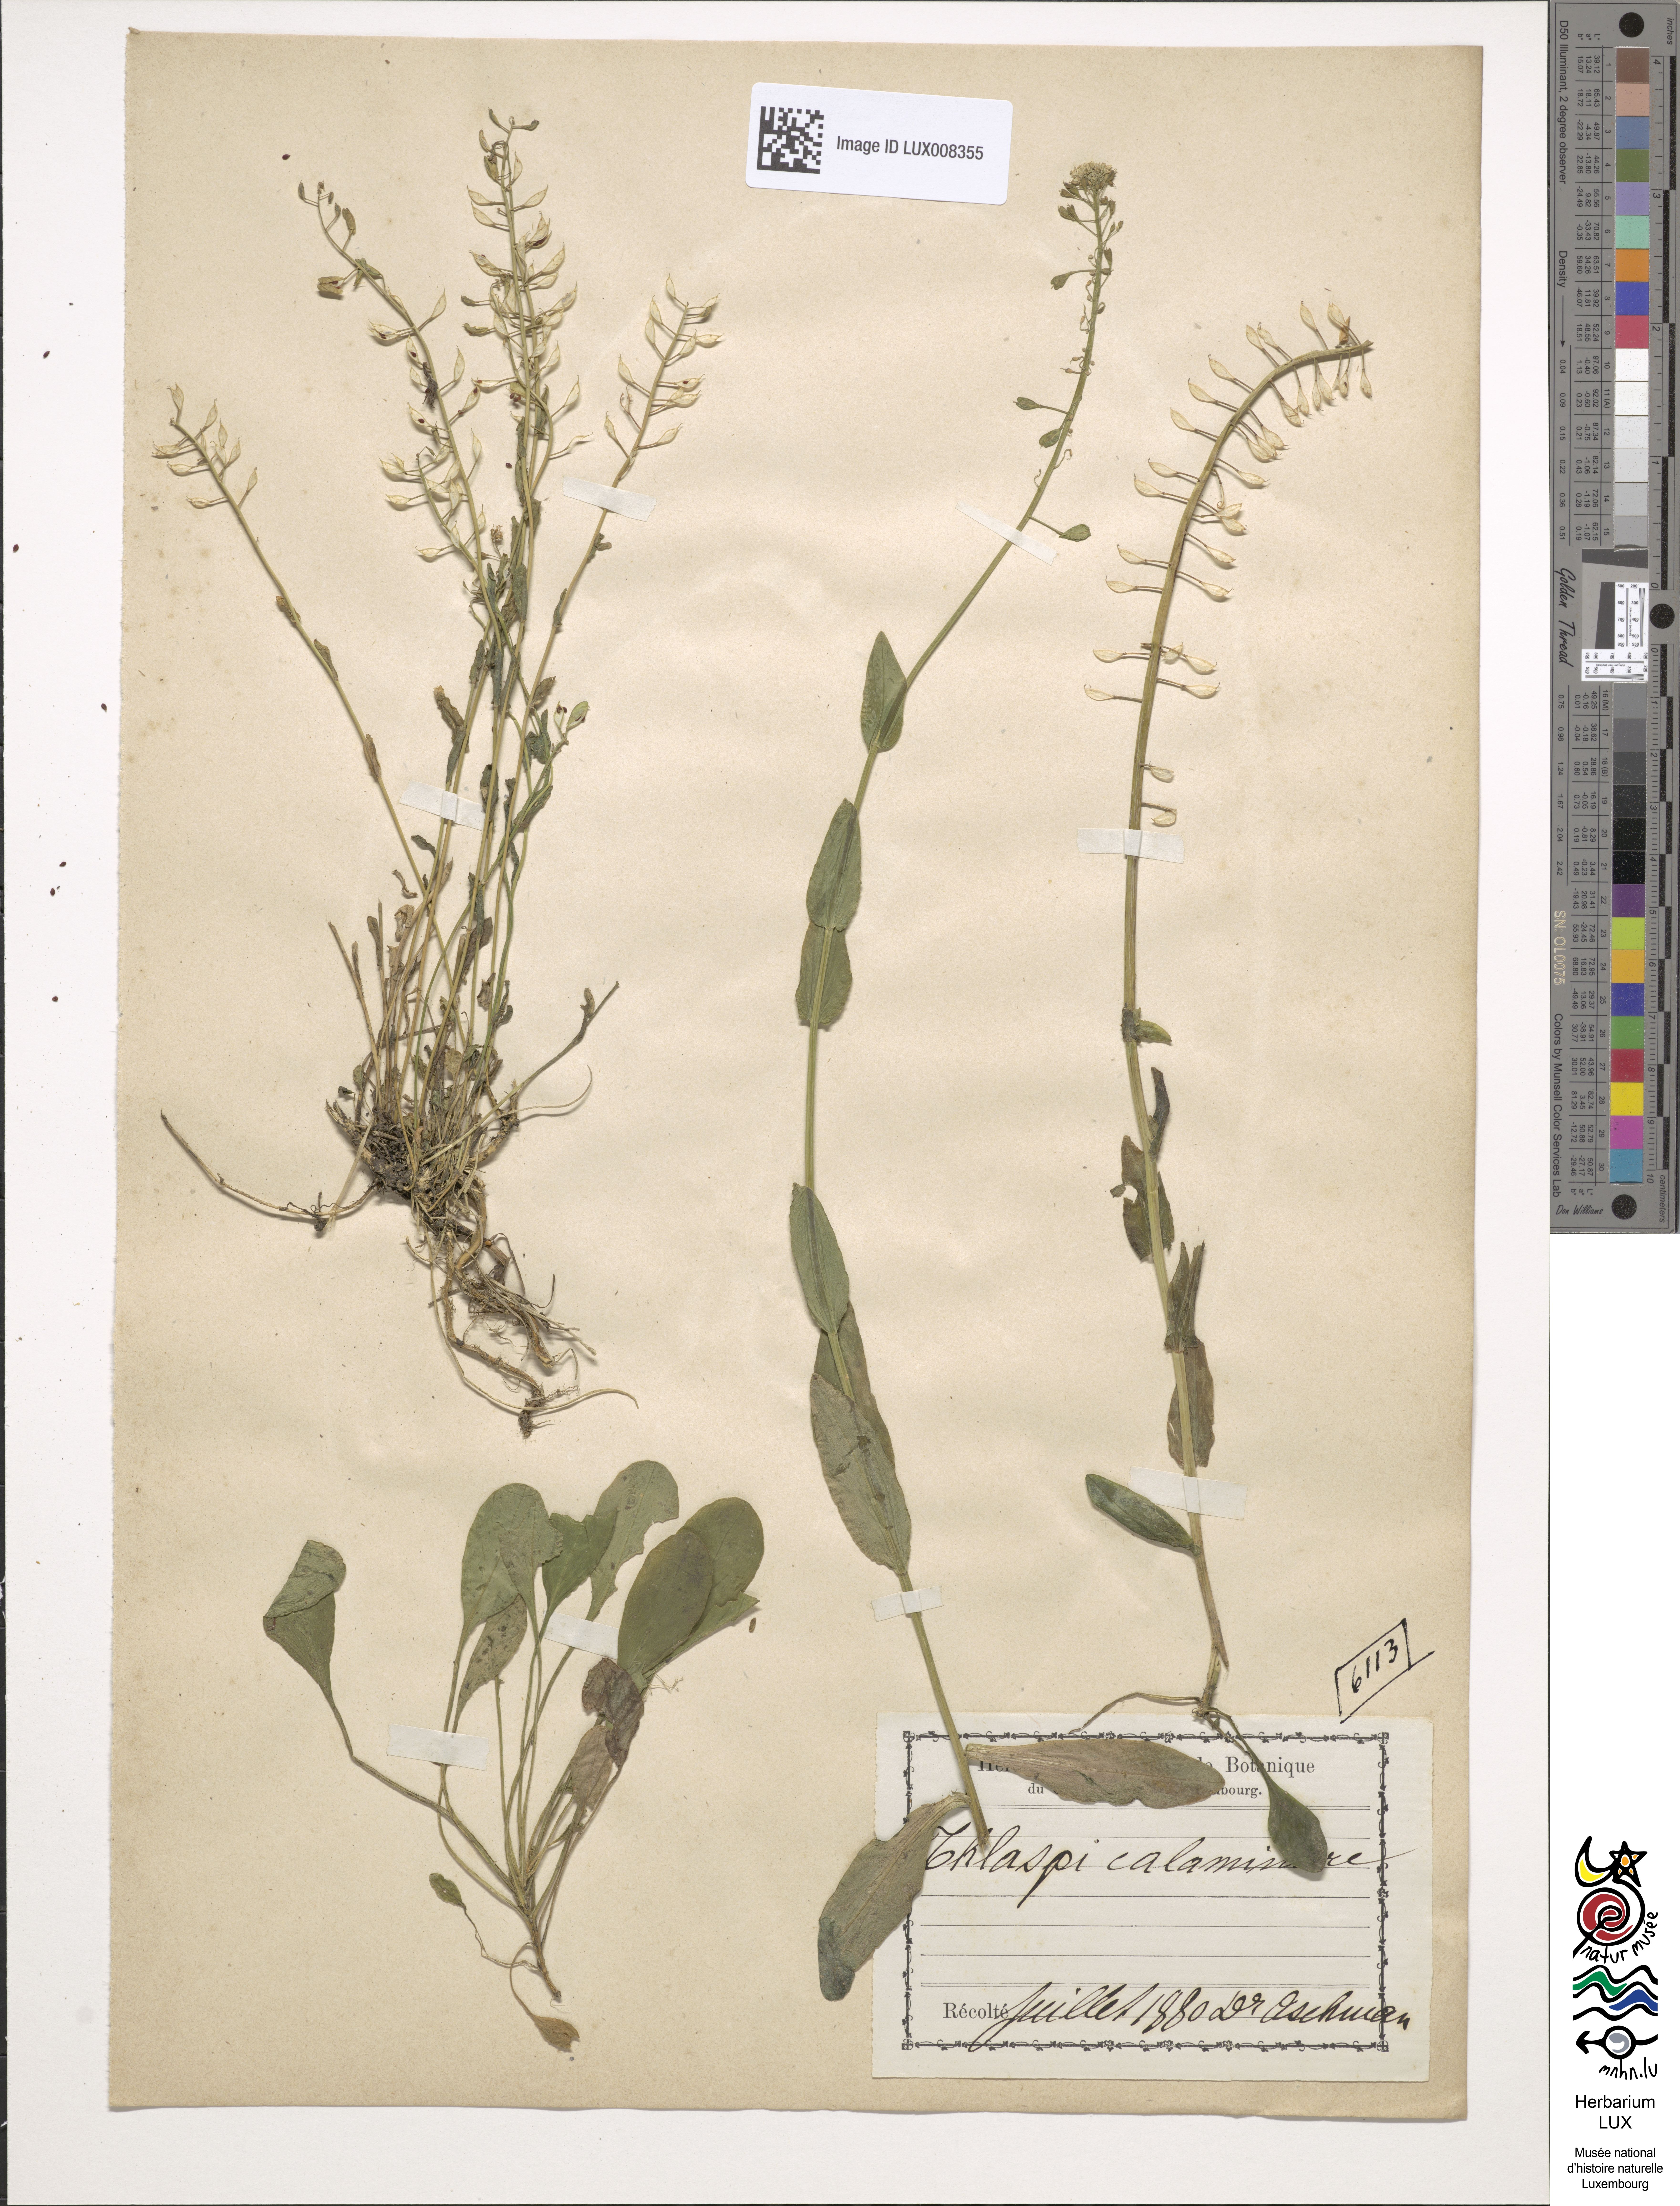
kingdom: Plantae
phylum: Tracheophyta
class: Magnoliopsida
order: Brassicales
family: Brassicaceae
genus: Noccaea
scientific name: Noccaea caerulescens
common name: Alpine pennycress
